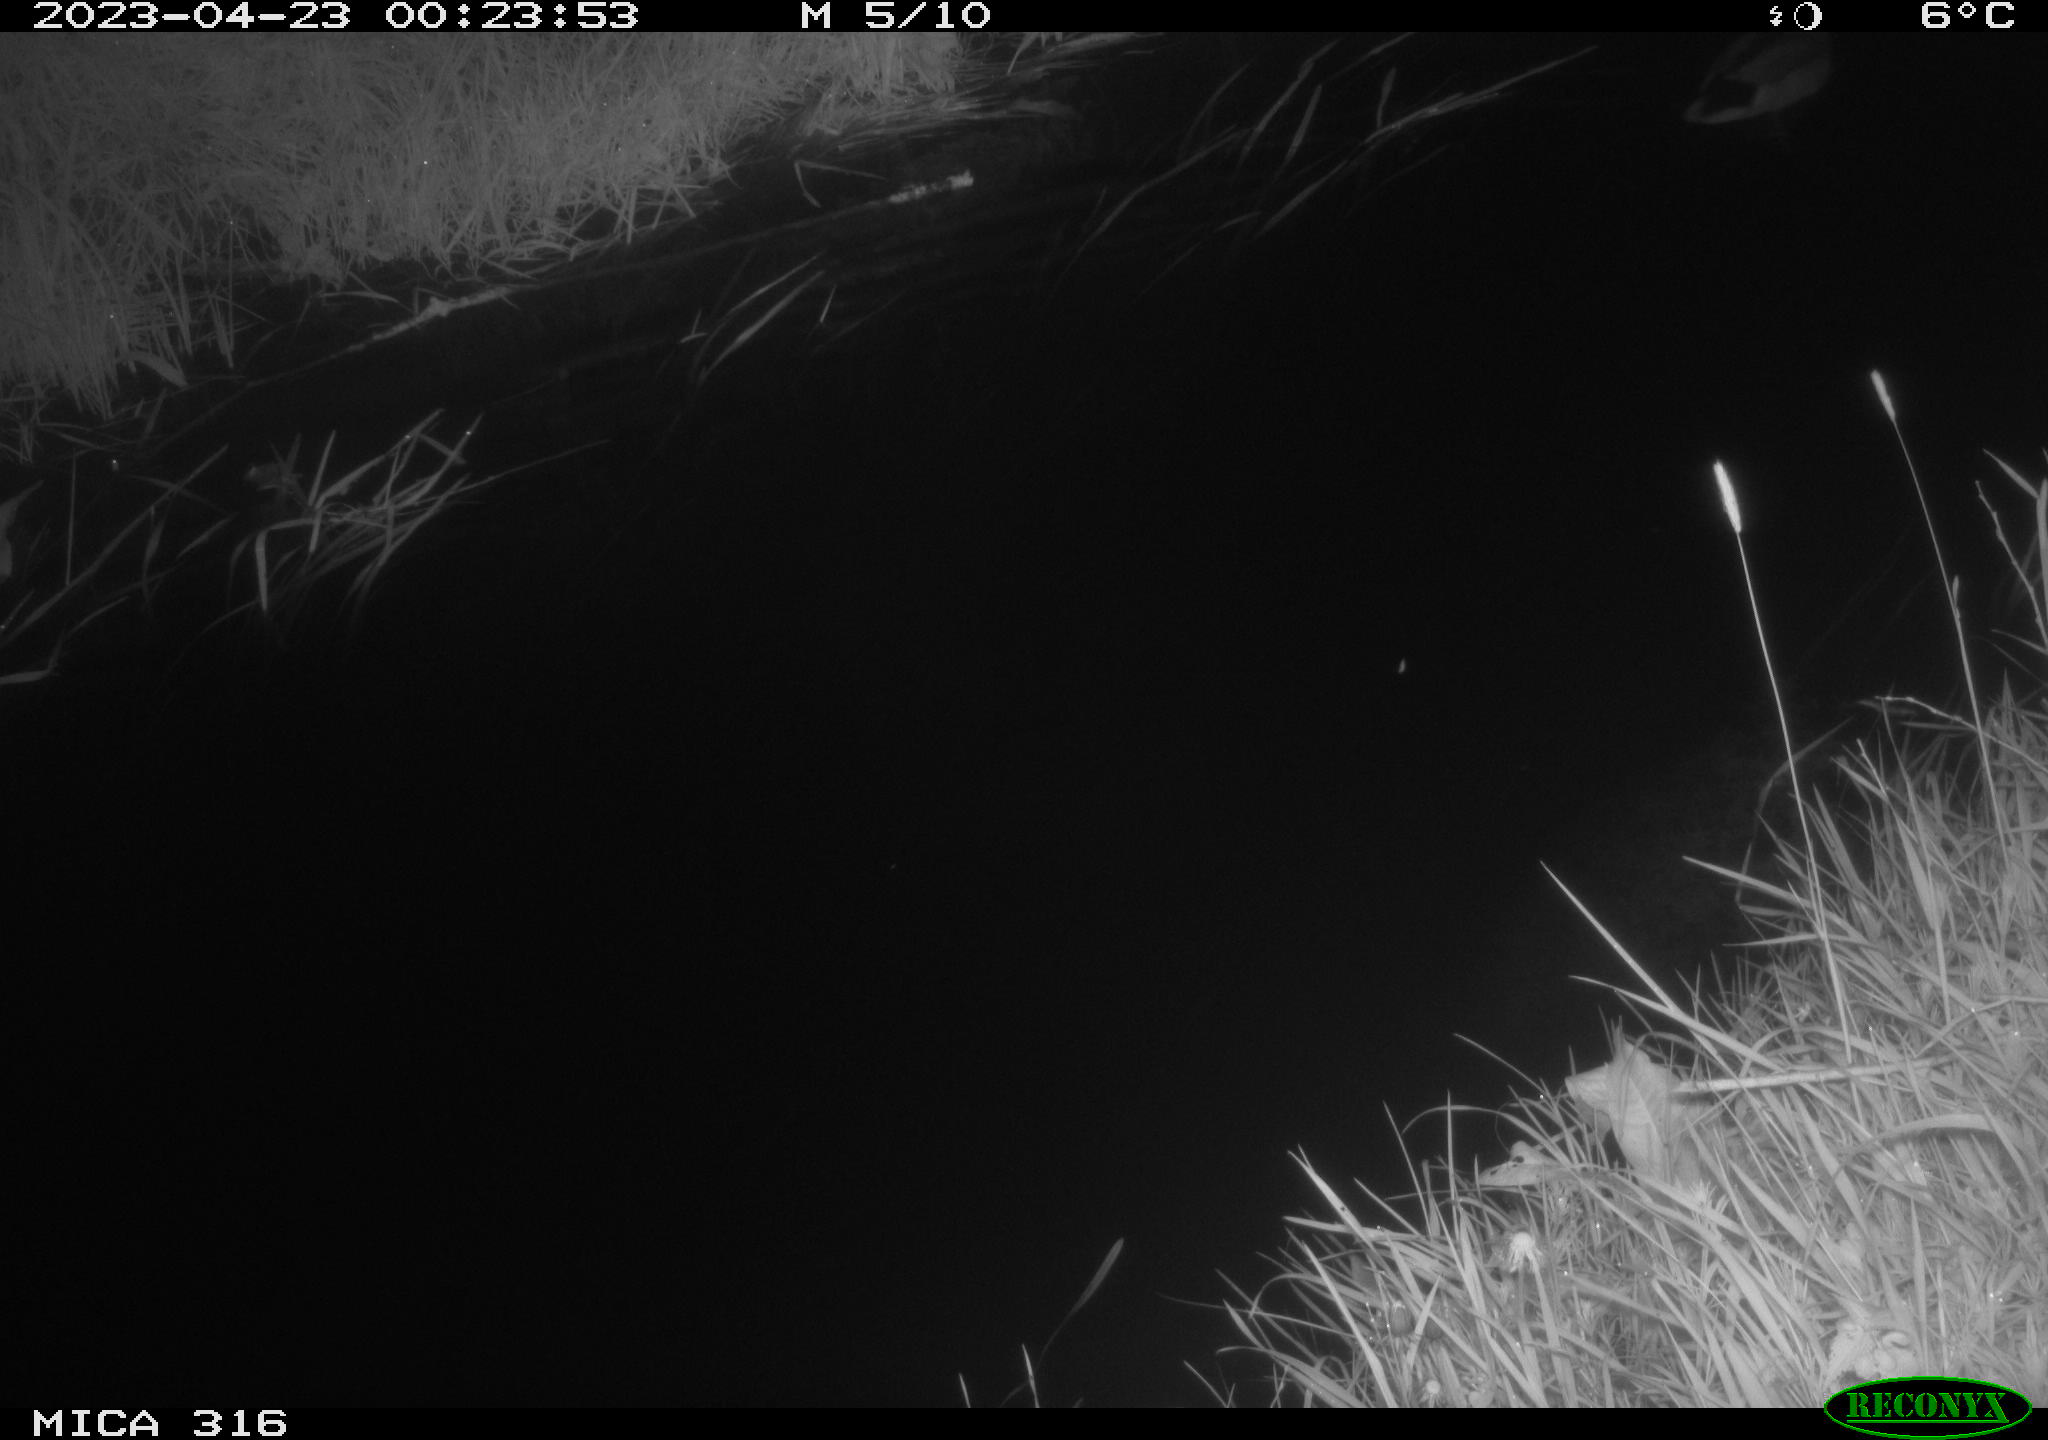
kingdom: Animalia
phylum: Chordata
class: Aves
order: Anseriformes
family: Anatidae
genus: Anas
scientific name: Anas
